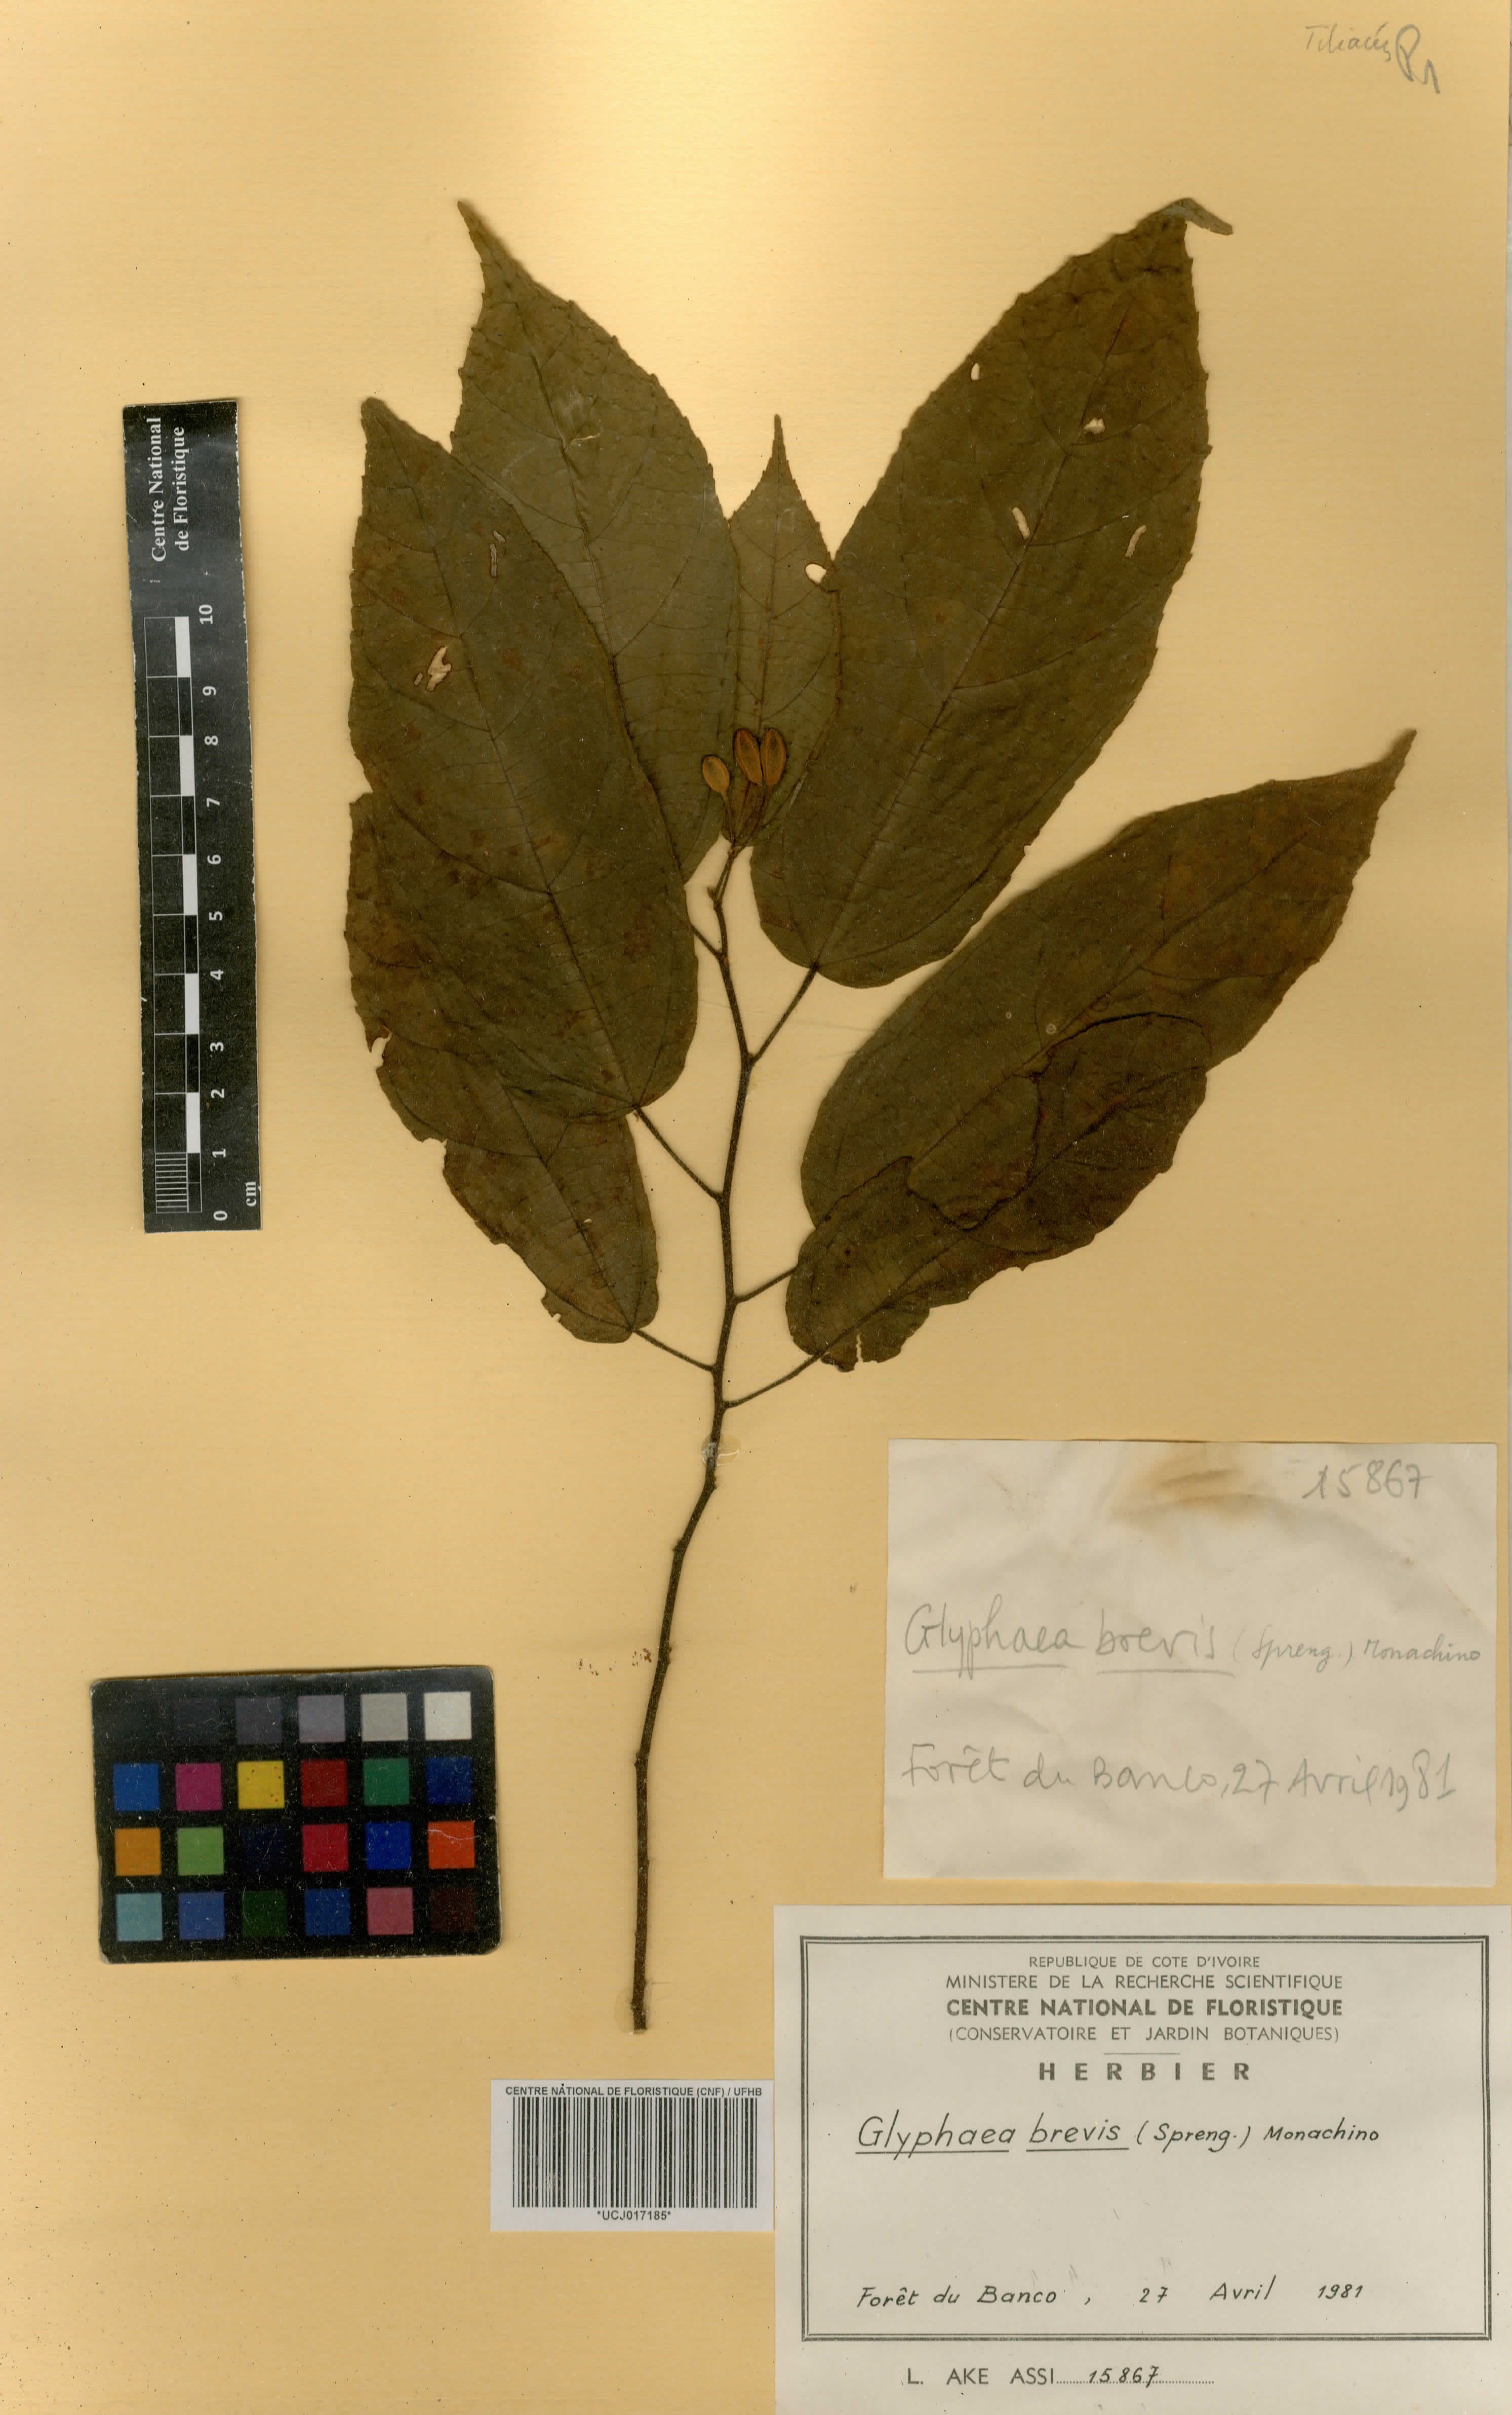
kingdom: Plantae
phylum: Tracheophyta
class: Magnoliopsida
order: Malvales
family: Malvaceae
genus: Glyphaea
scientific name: Glyphaea brevis
